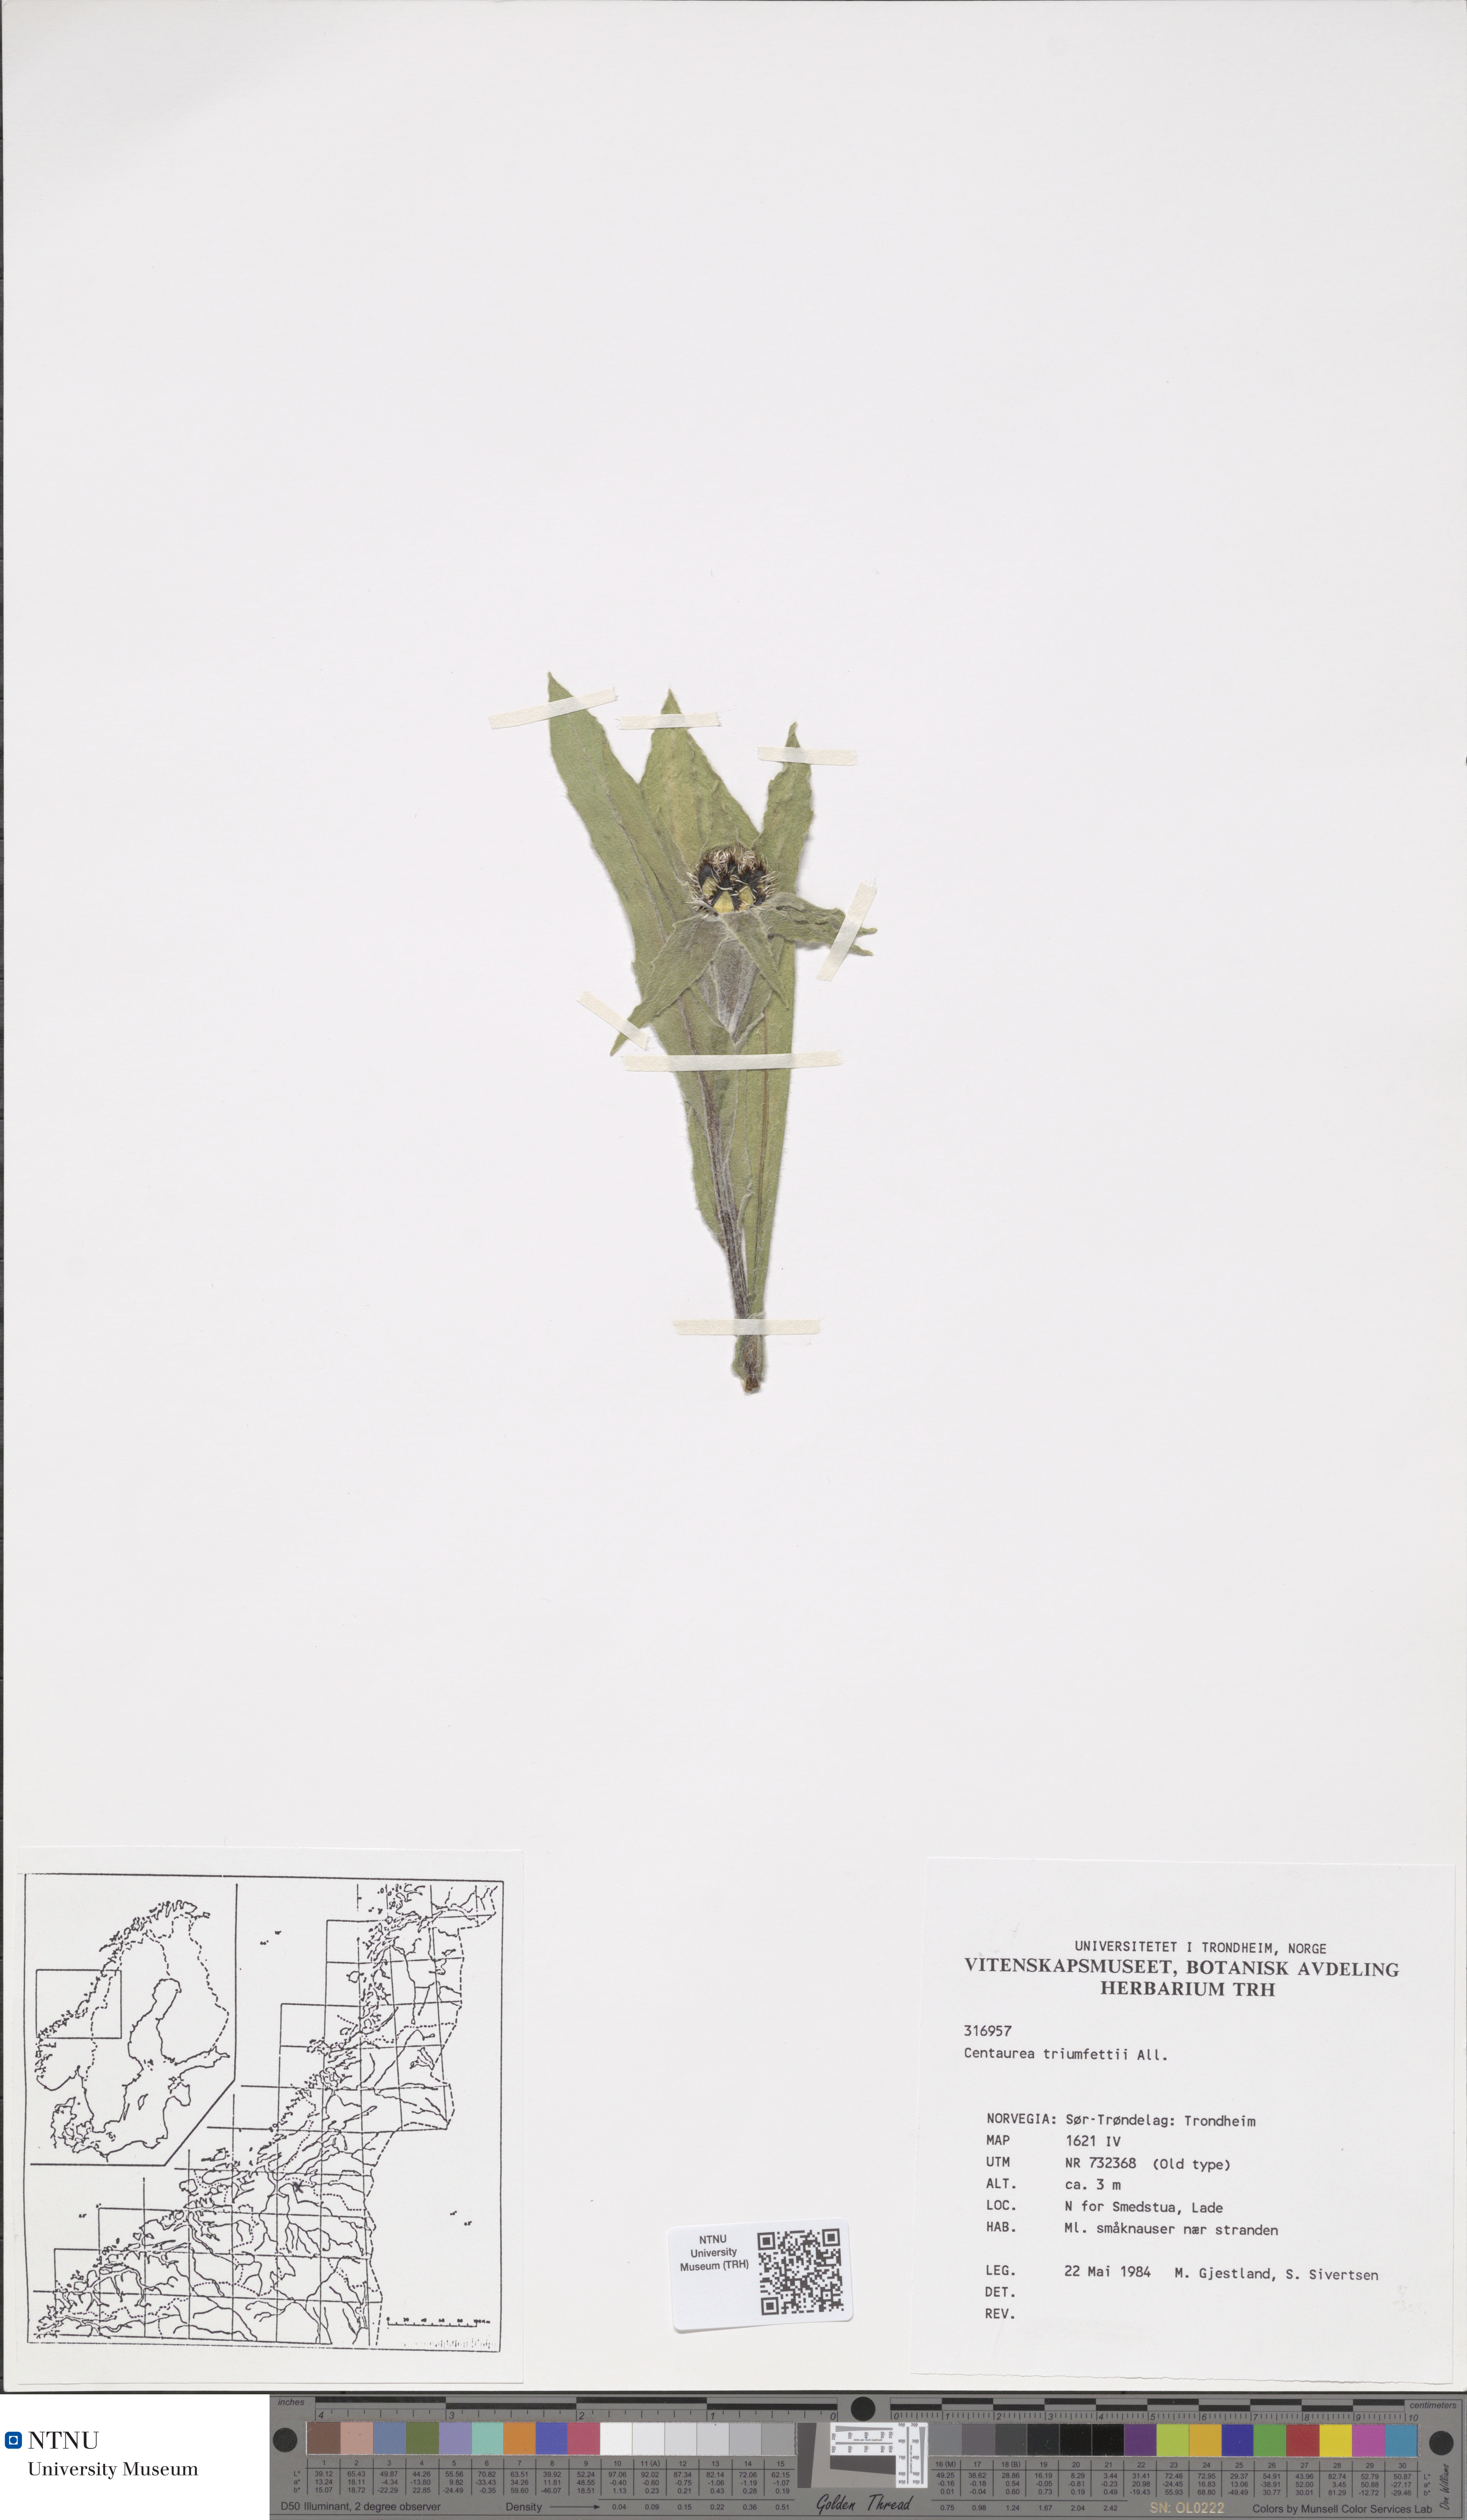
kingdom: Plantae
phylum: Tracheophyta
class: Magnoliopsida
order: Asterales
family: Asteraceae
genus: Centaurea
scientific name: Centaurea triumfettii
